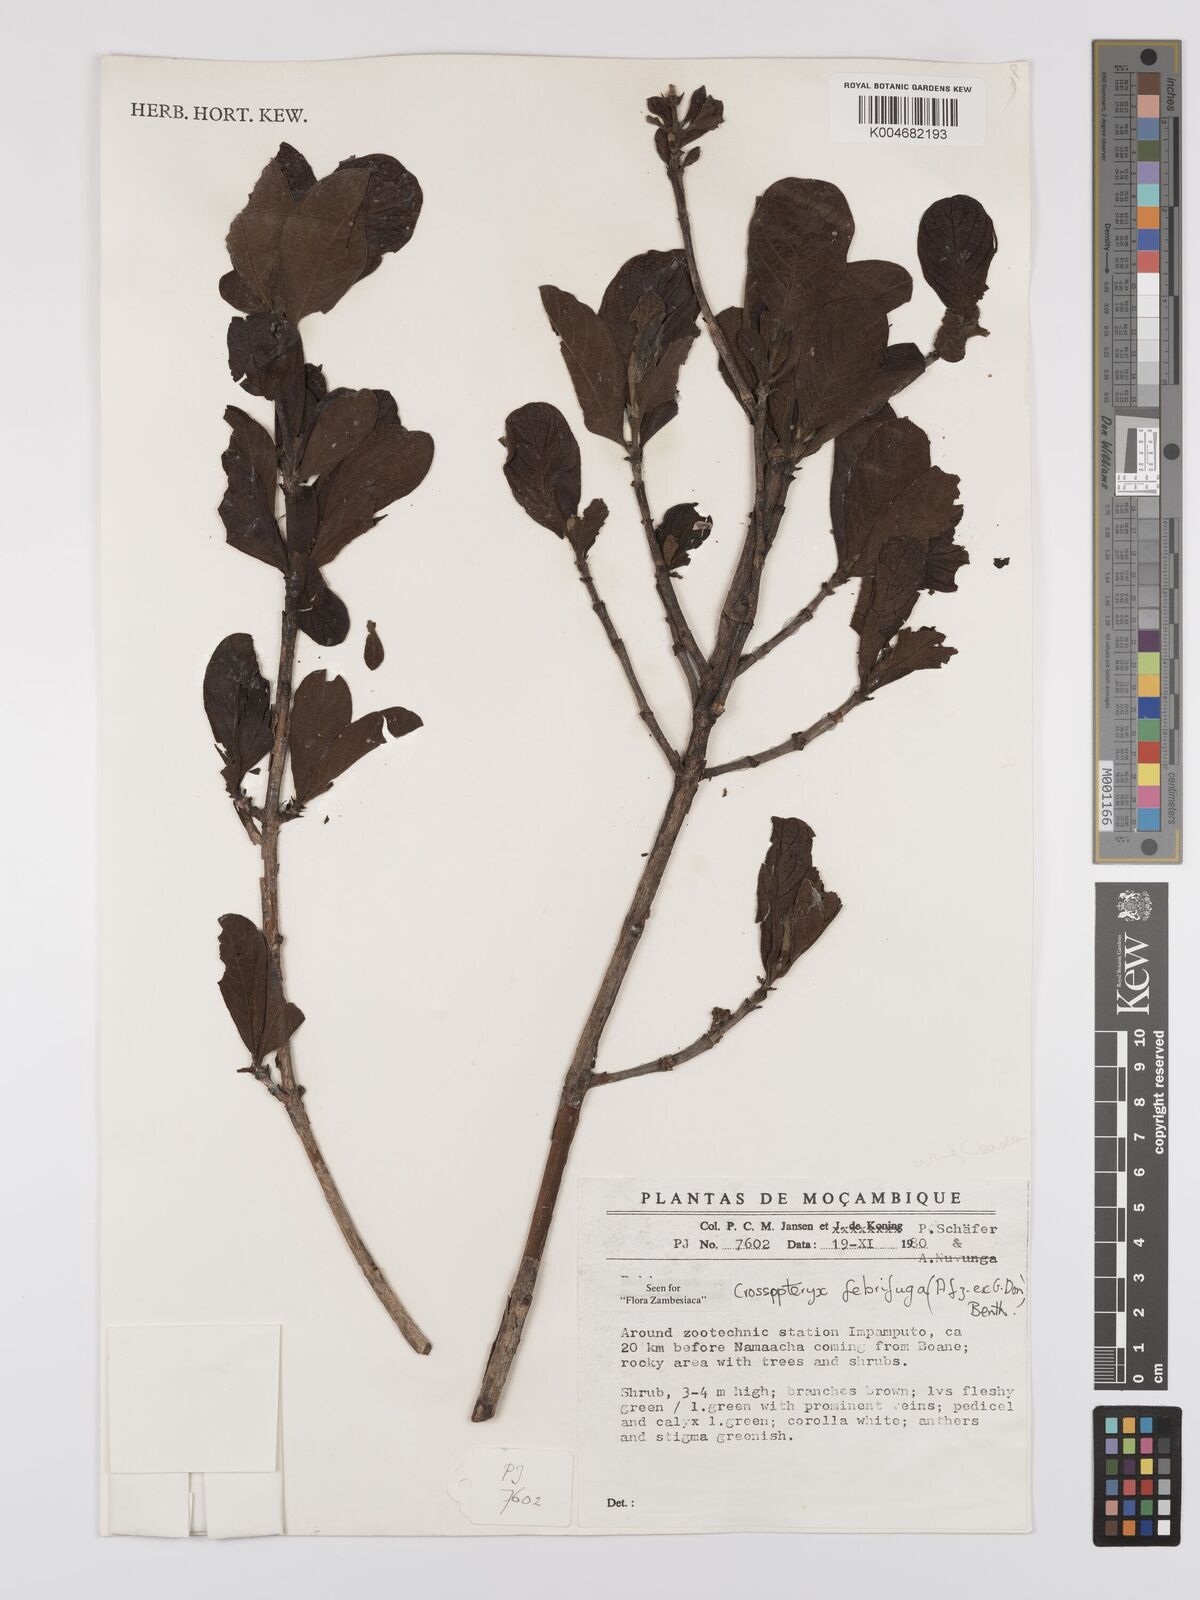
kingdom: Plantae
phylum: Tracheophyta
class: Magnoliopsida
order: Gentianales
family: Rubiaceae
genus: Crossopteryx
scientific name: Crossopteryx febrifuga
